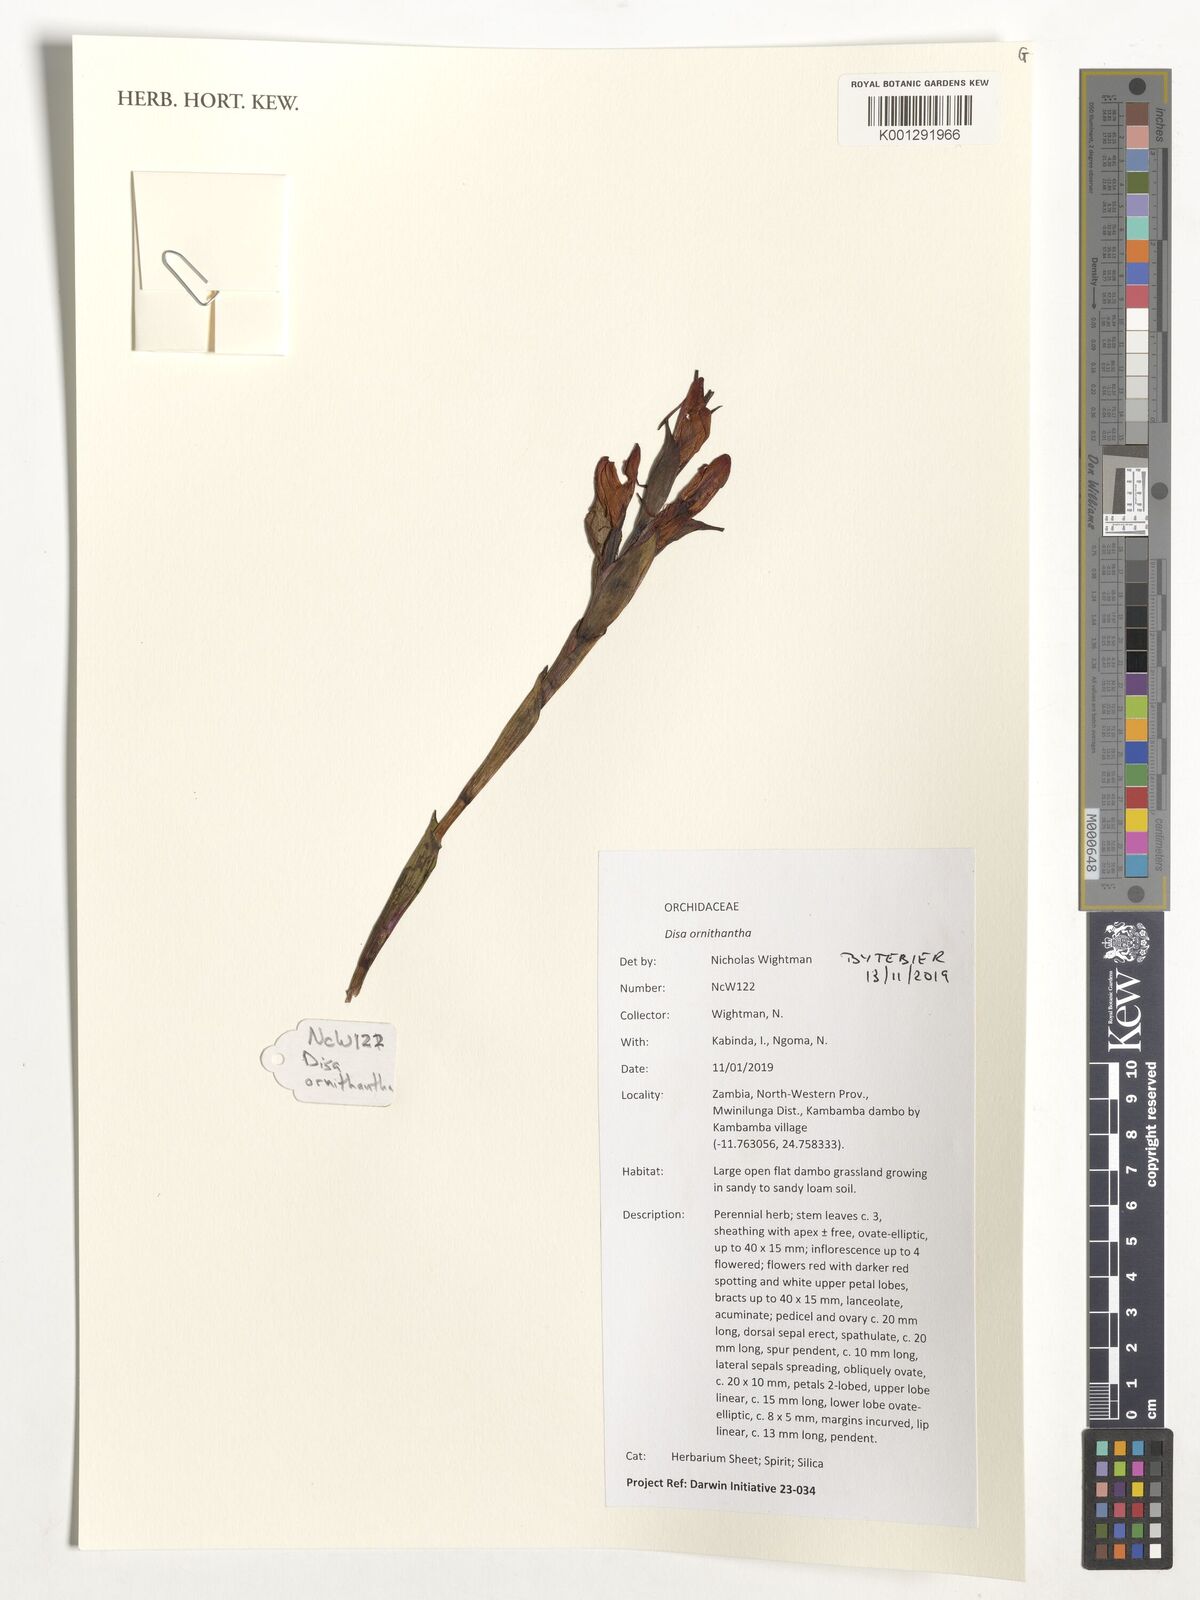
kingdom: Plantae
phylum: Tracheophyta
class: Liliopsida
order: Asparagales
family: Orchidaceae
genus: Disa
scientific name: Disa ornithantha
